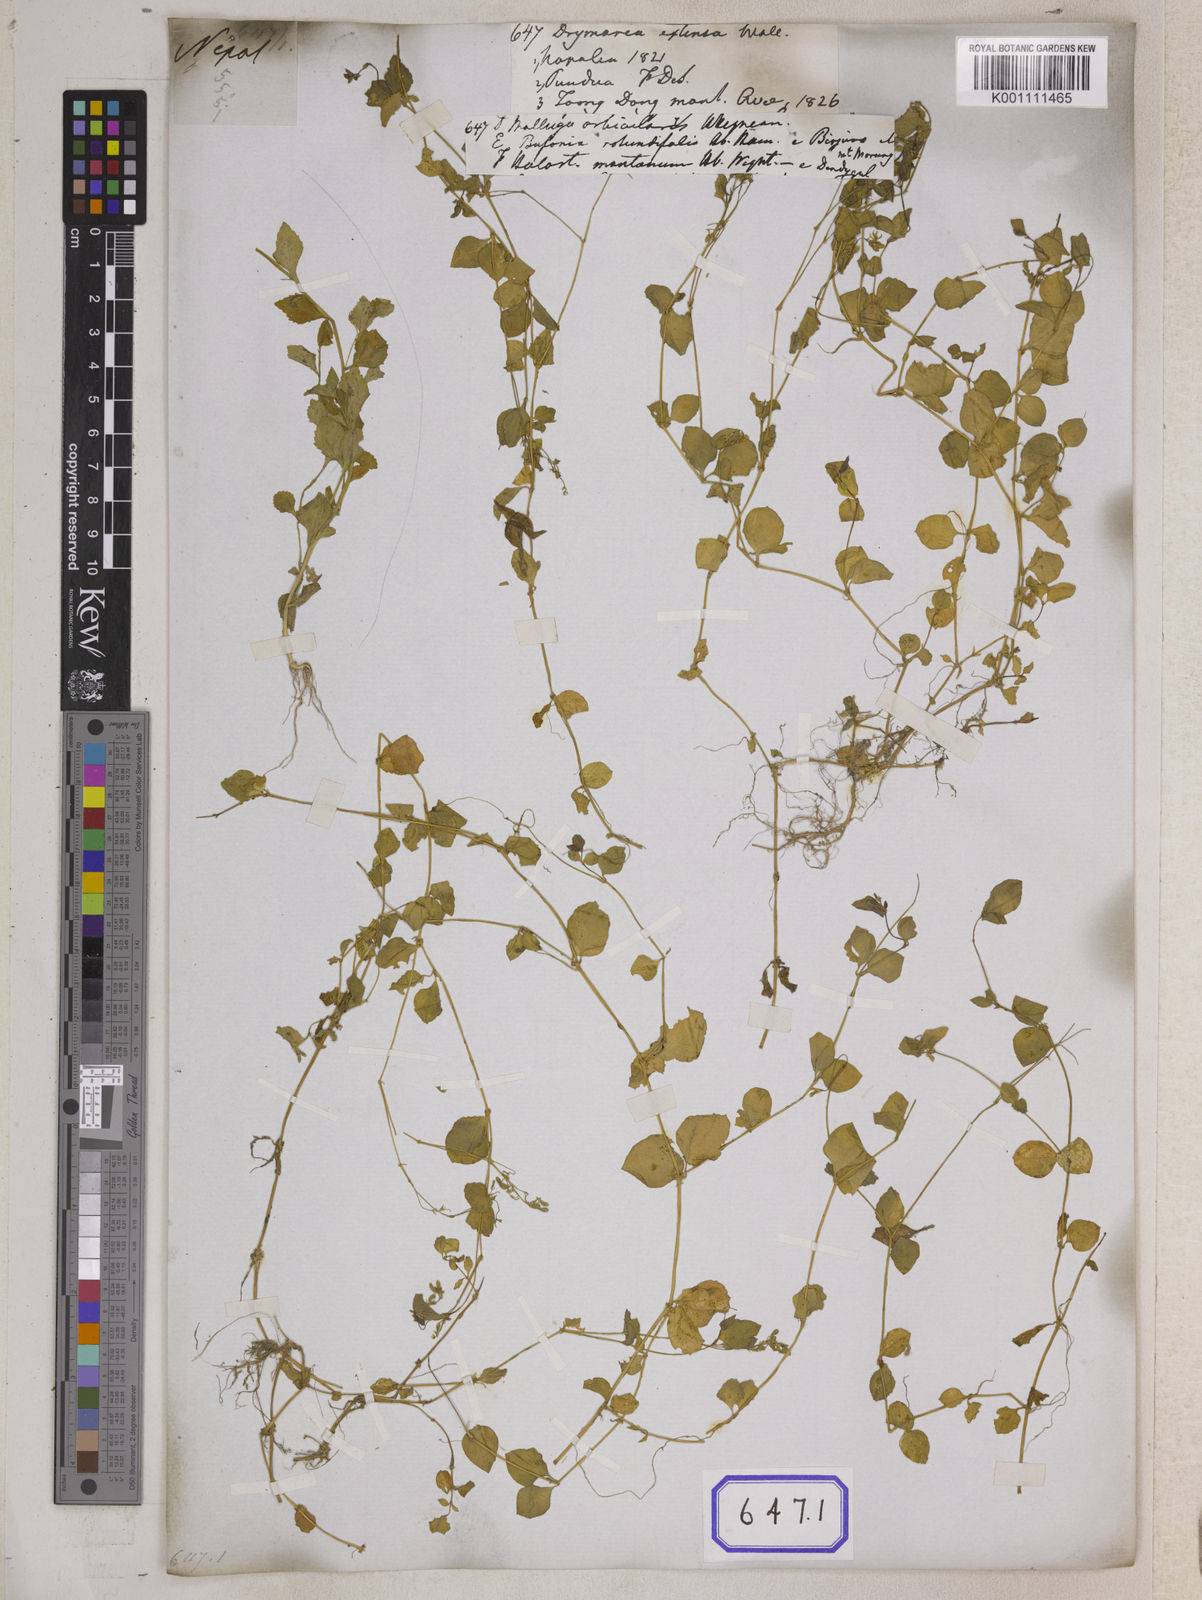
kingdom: Plantae
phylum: Tracheophyta
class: Magnoliopsida
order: Caryophyllales
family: Caryophyllaceae
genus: Drymaria
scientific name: Drymaria
